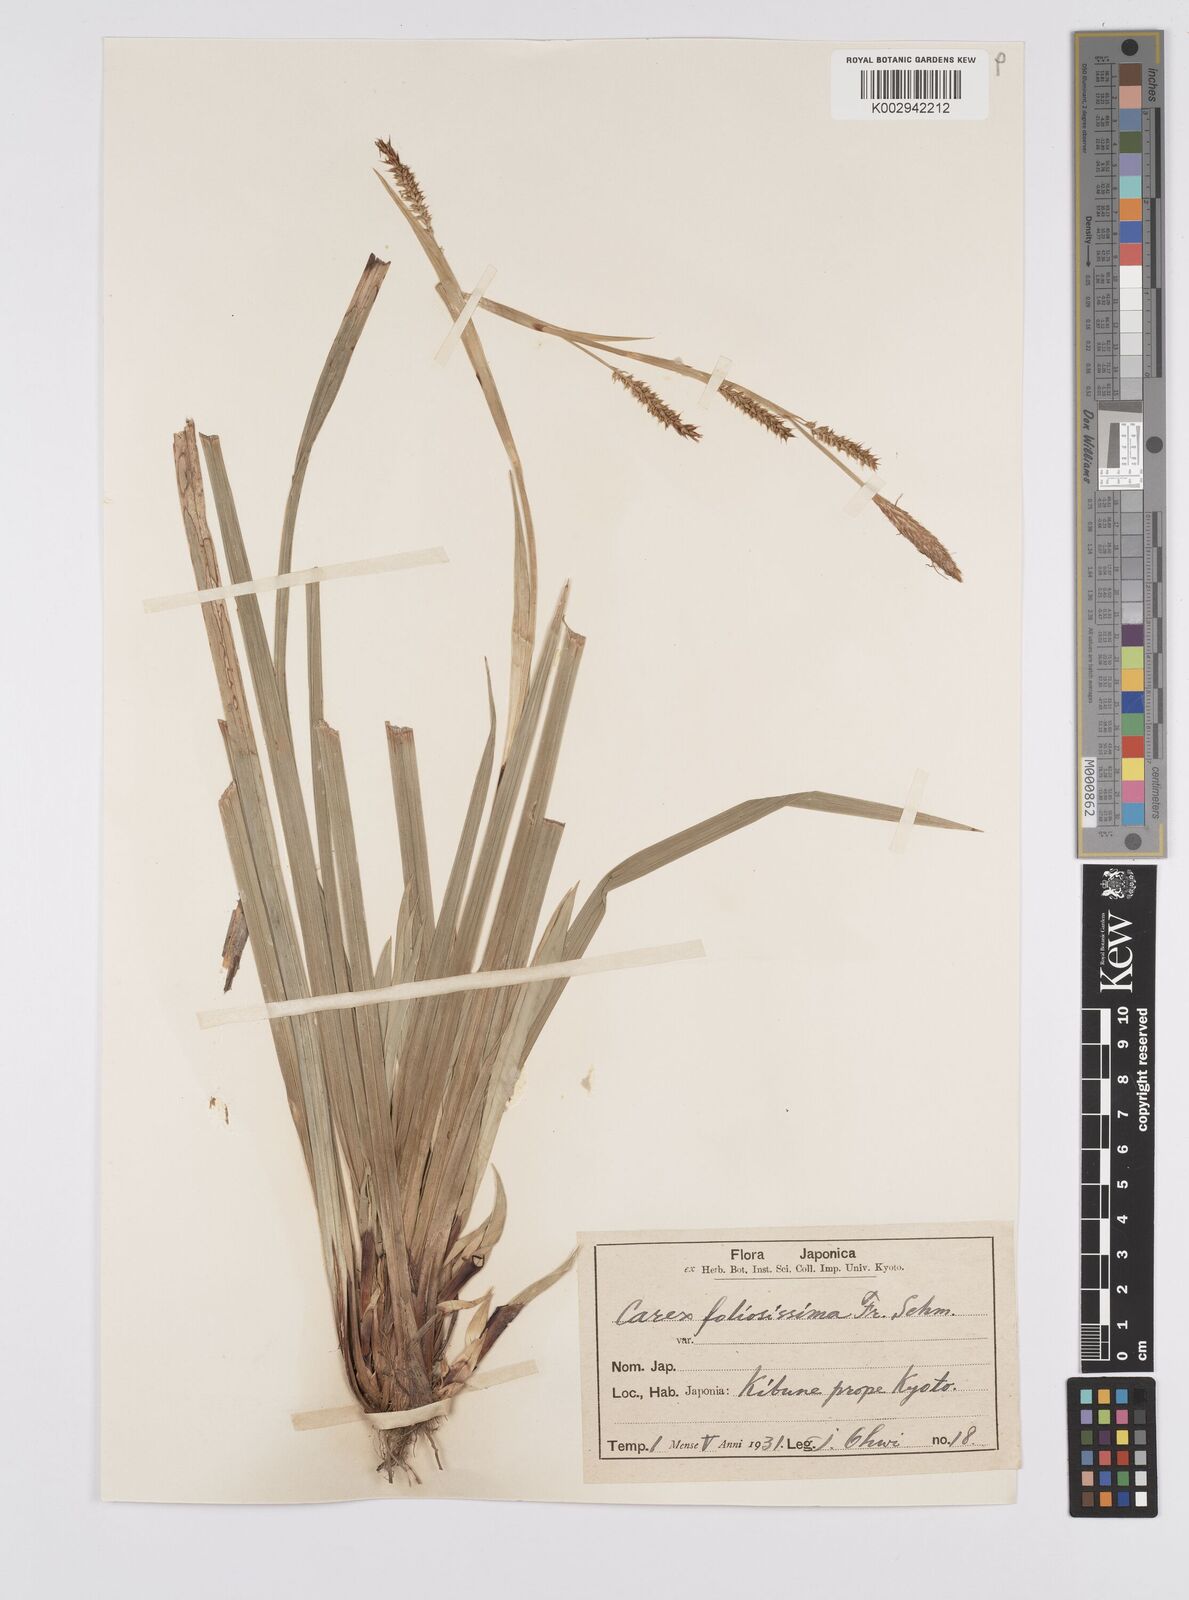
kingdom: Plantae
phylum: Tracheophyta
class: Liliopsida
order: Poales
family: Cyperaceae
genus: Carex
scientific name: Carex morrowii
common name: Japanese sedge
